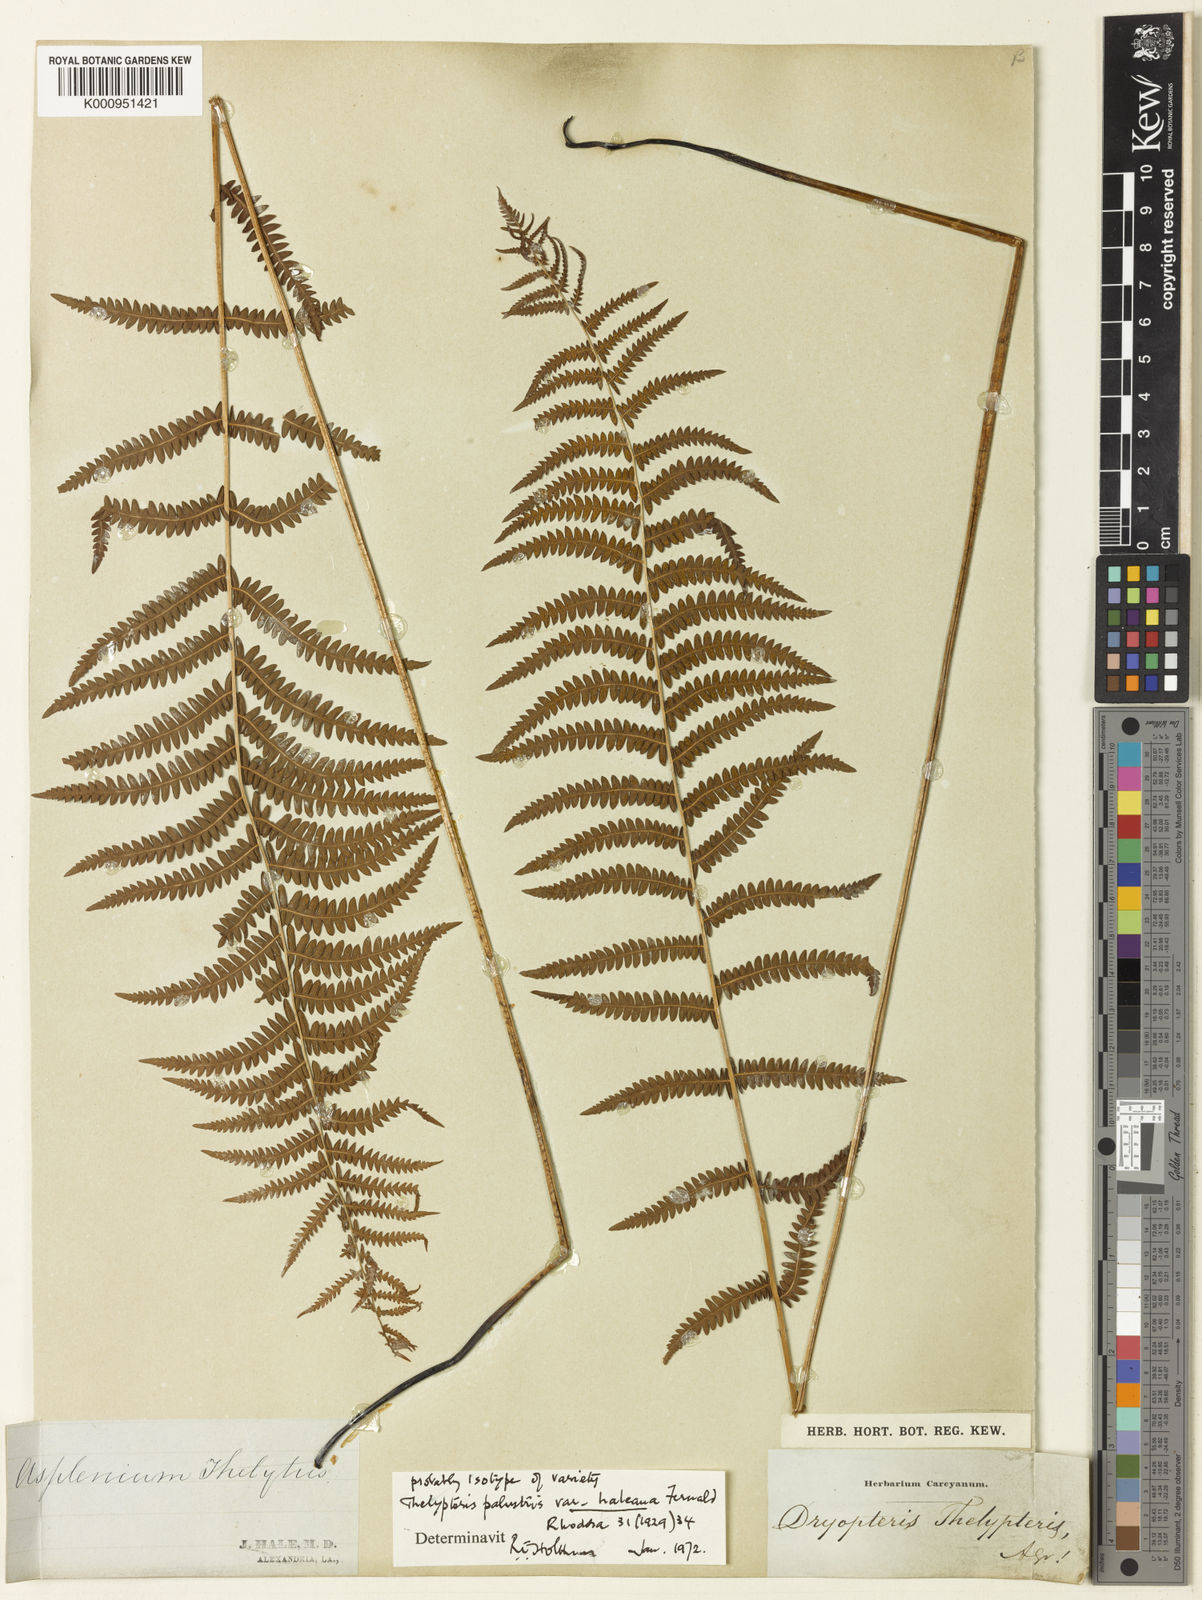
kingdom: Plantae
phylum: Tracheophyta
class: Polypodiopsida
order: Polypodiales
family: Thelypteridaceae
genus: Thelypteris
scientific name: Thelypteris palustris
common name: Marsh fern
